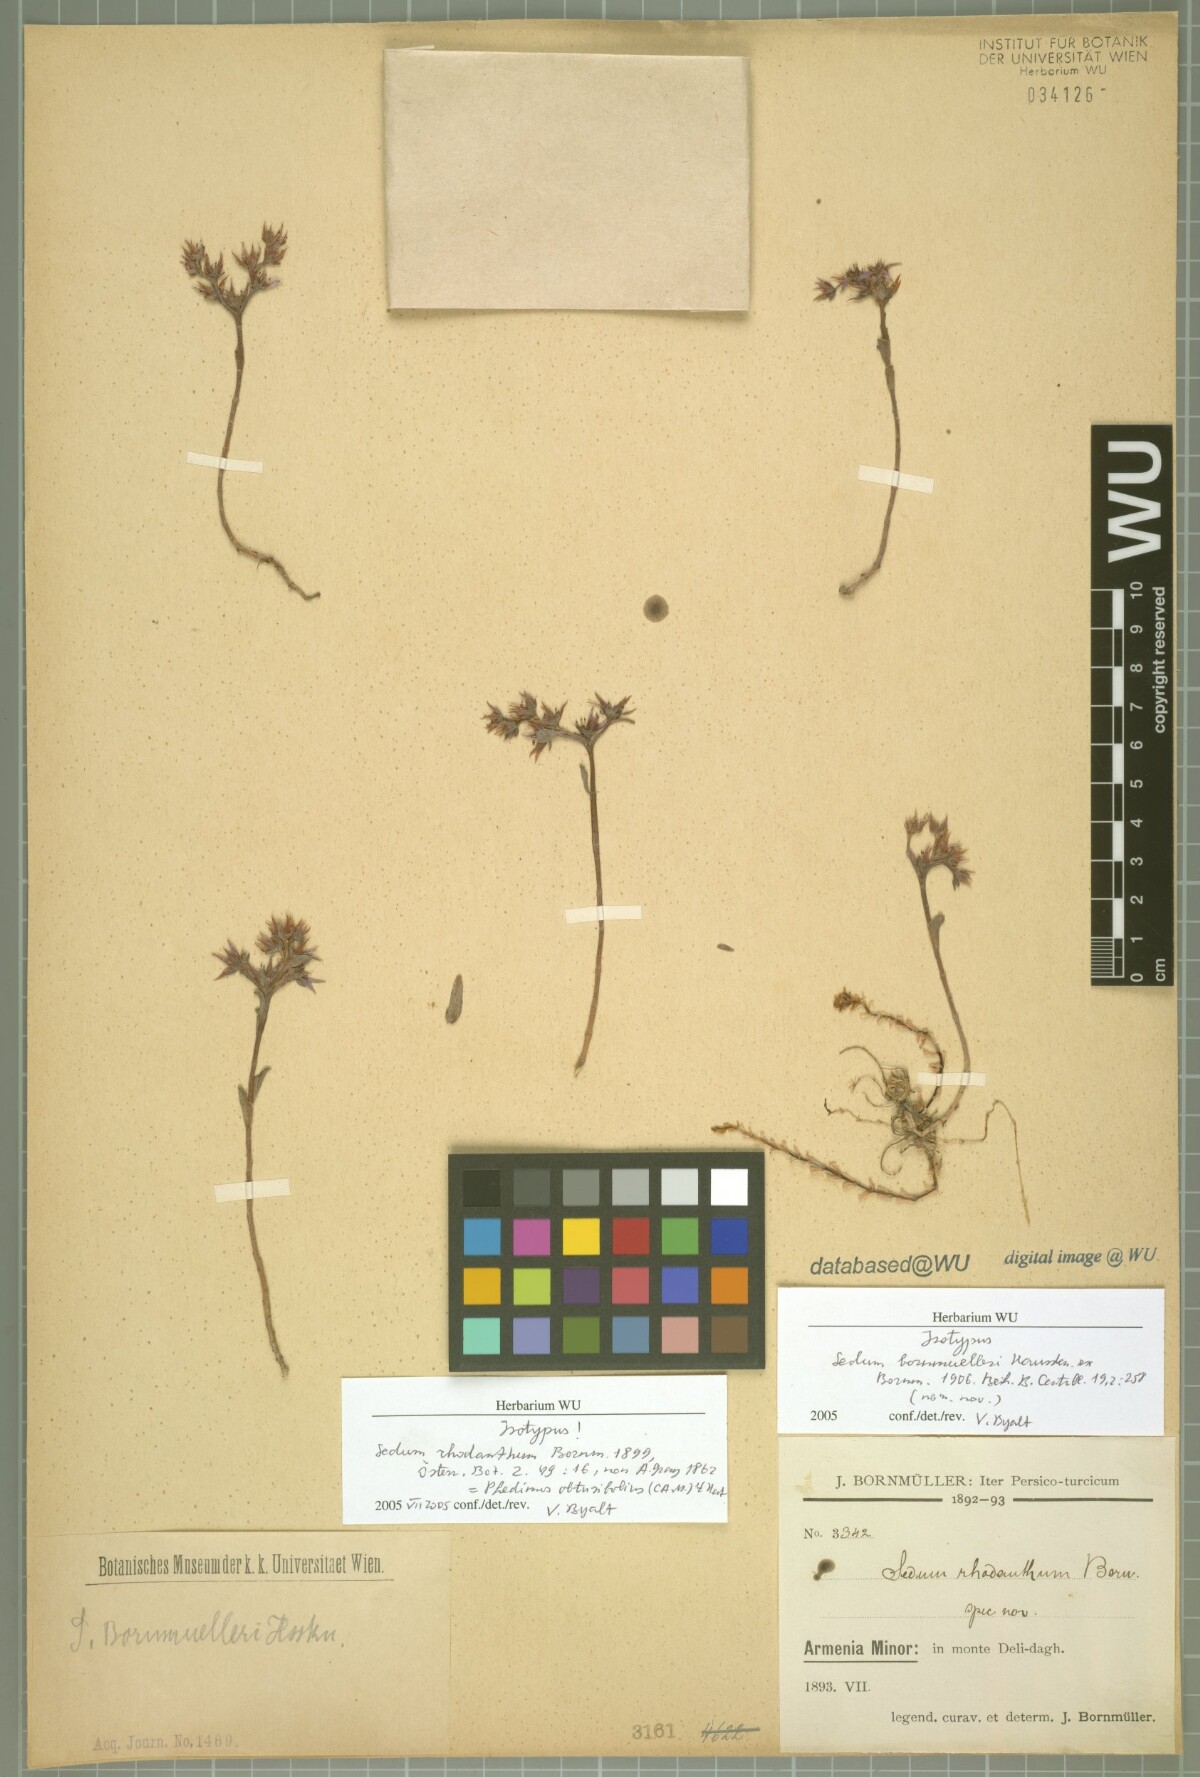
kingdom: Plantae
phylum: Tracheophyta
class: Magnoliopsida
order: Saxifragales
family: Crassulaceae
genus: Phedimus
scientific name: Phedimus obtusifolius
